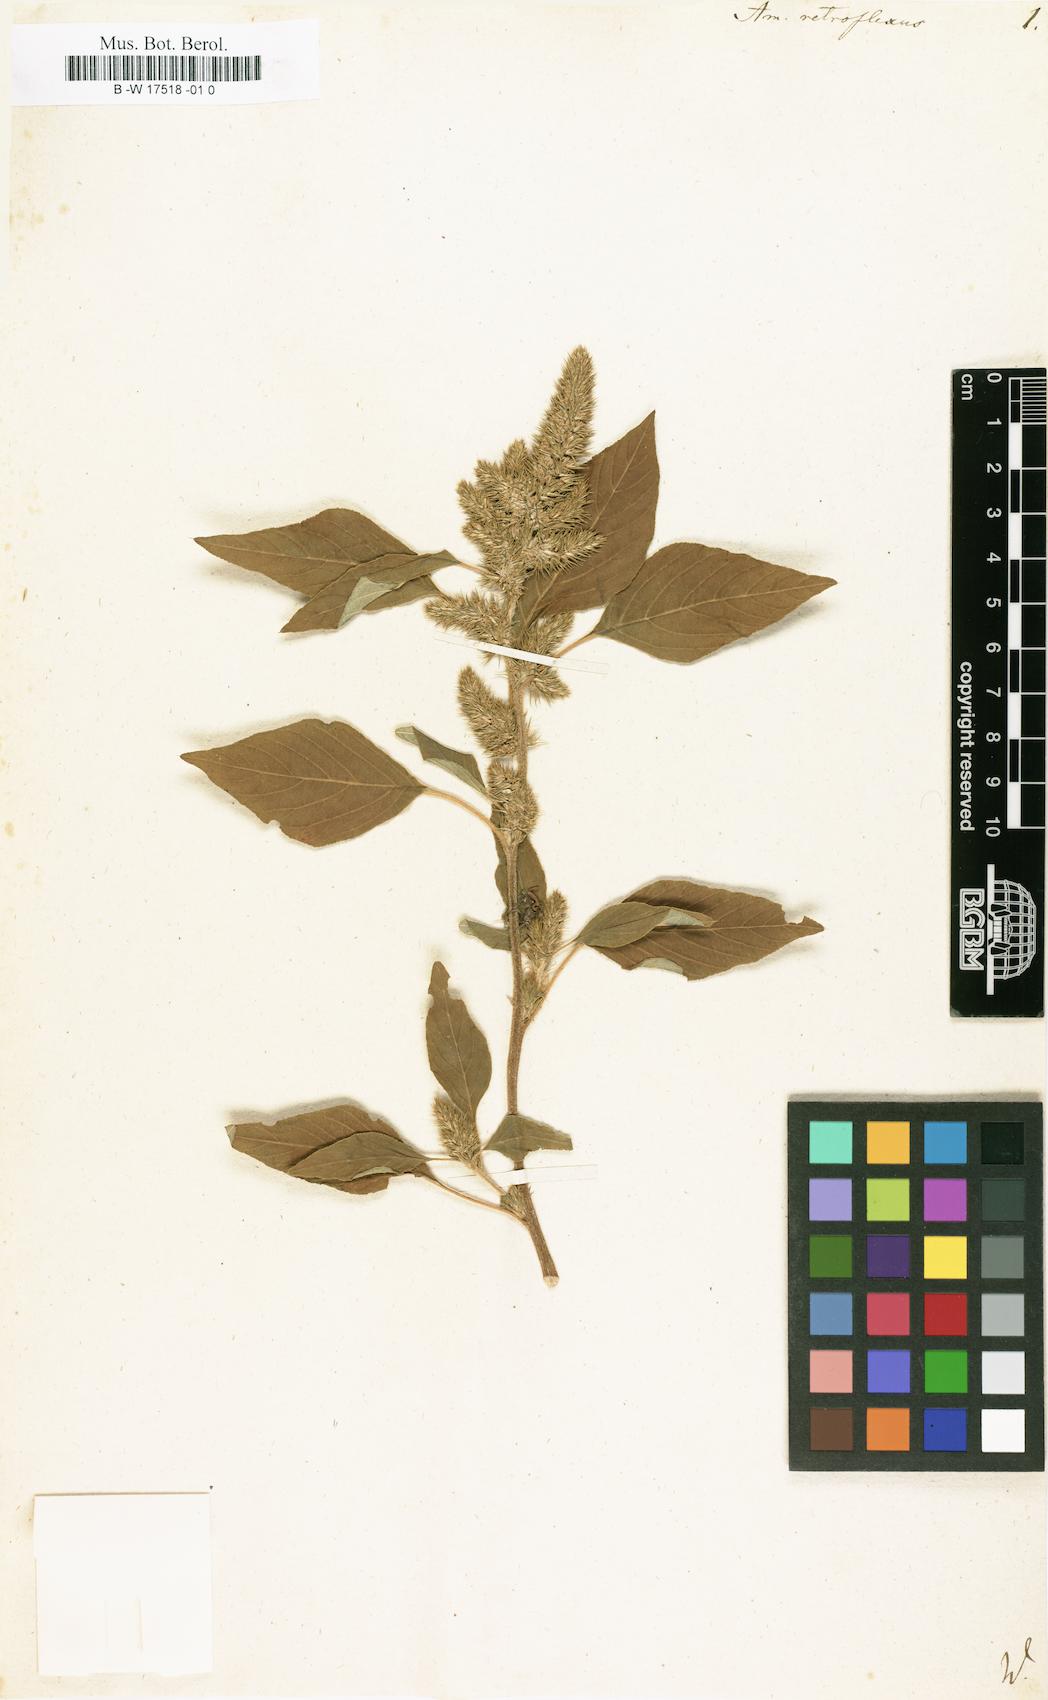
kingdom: Plantae
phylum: Tracheophyta
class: Magnoliopsida
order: Caryophyllales
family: Amaranthaceae
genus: Amaranthus
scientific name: Amaranthus retroflexus
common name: Redroot amaranth
